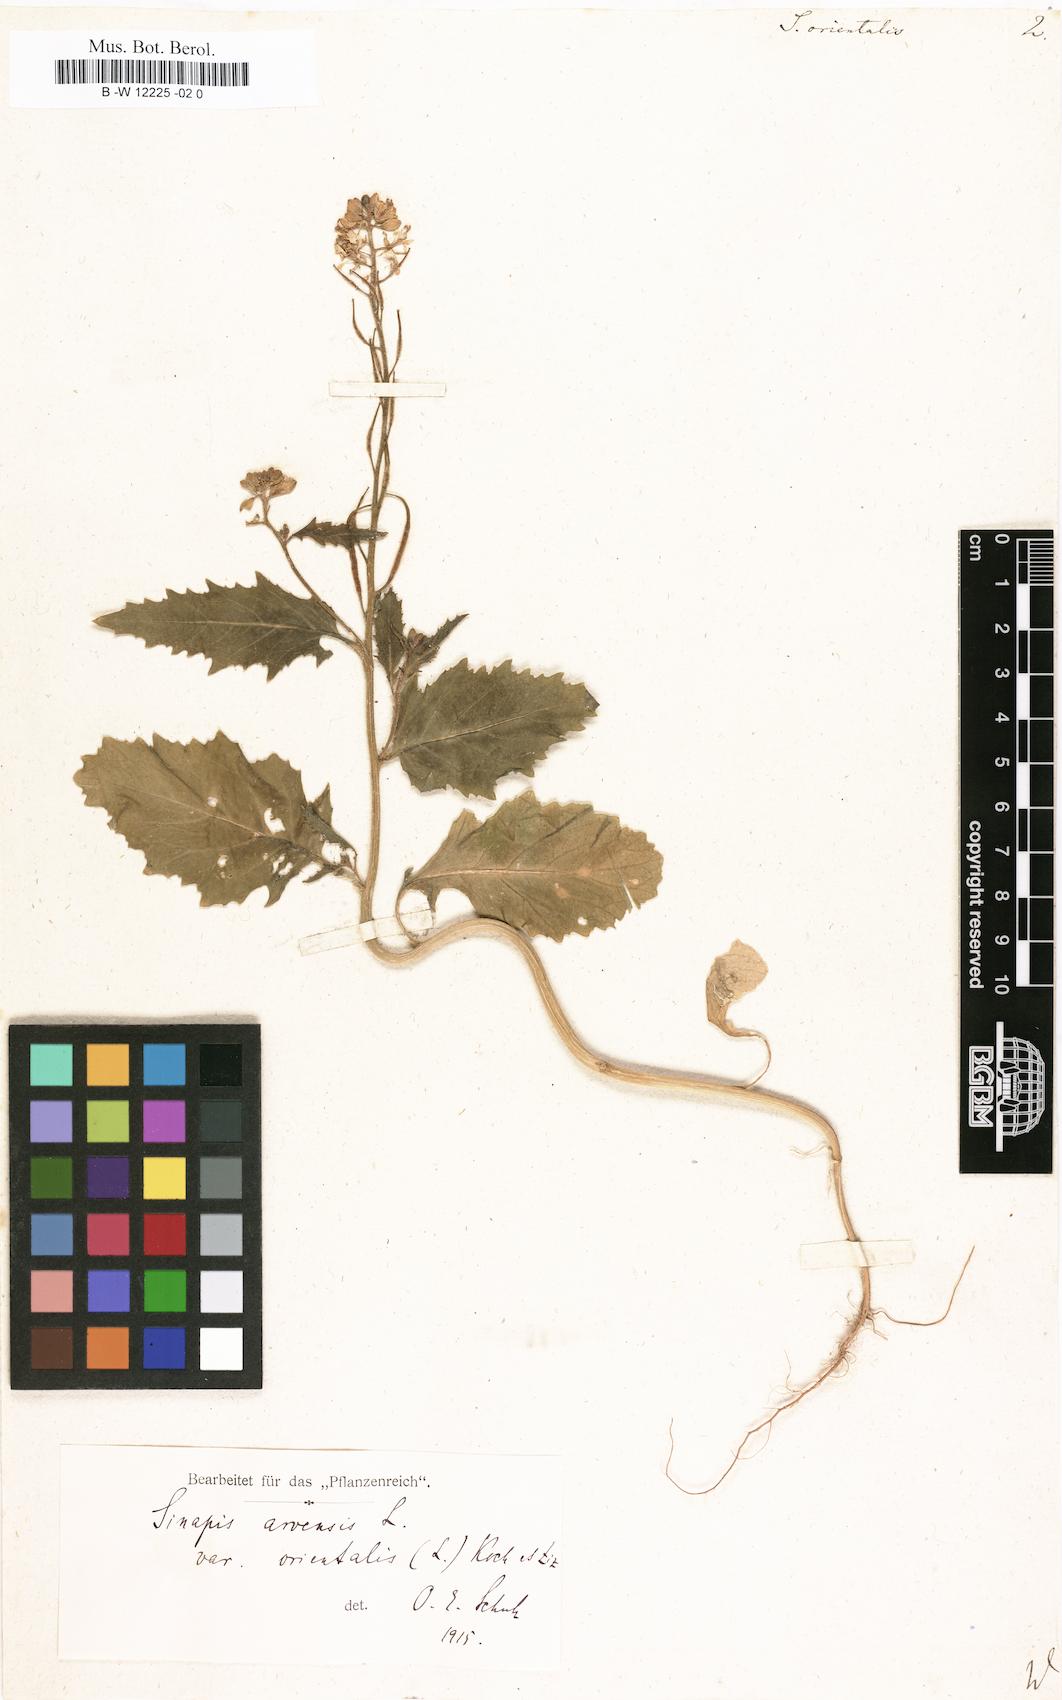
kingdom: Plantae
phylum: Tracheophyta
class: Magnoliopsida
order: Brassicales
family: Brassicaceae
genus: Sinapis
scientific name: Sinapis arvensis
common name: Charlock
